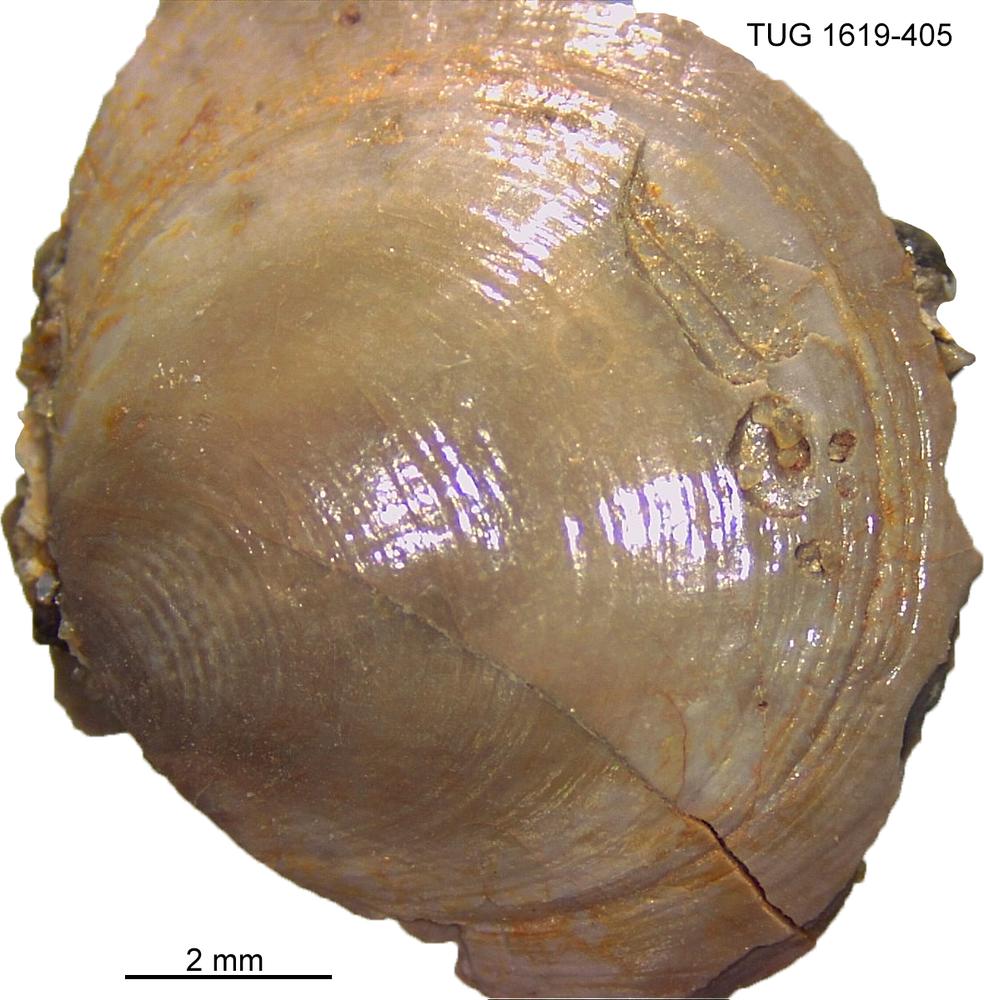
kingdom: Animalia
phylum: Porifera
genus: Ungula
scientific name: Ungula
